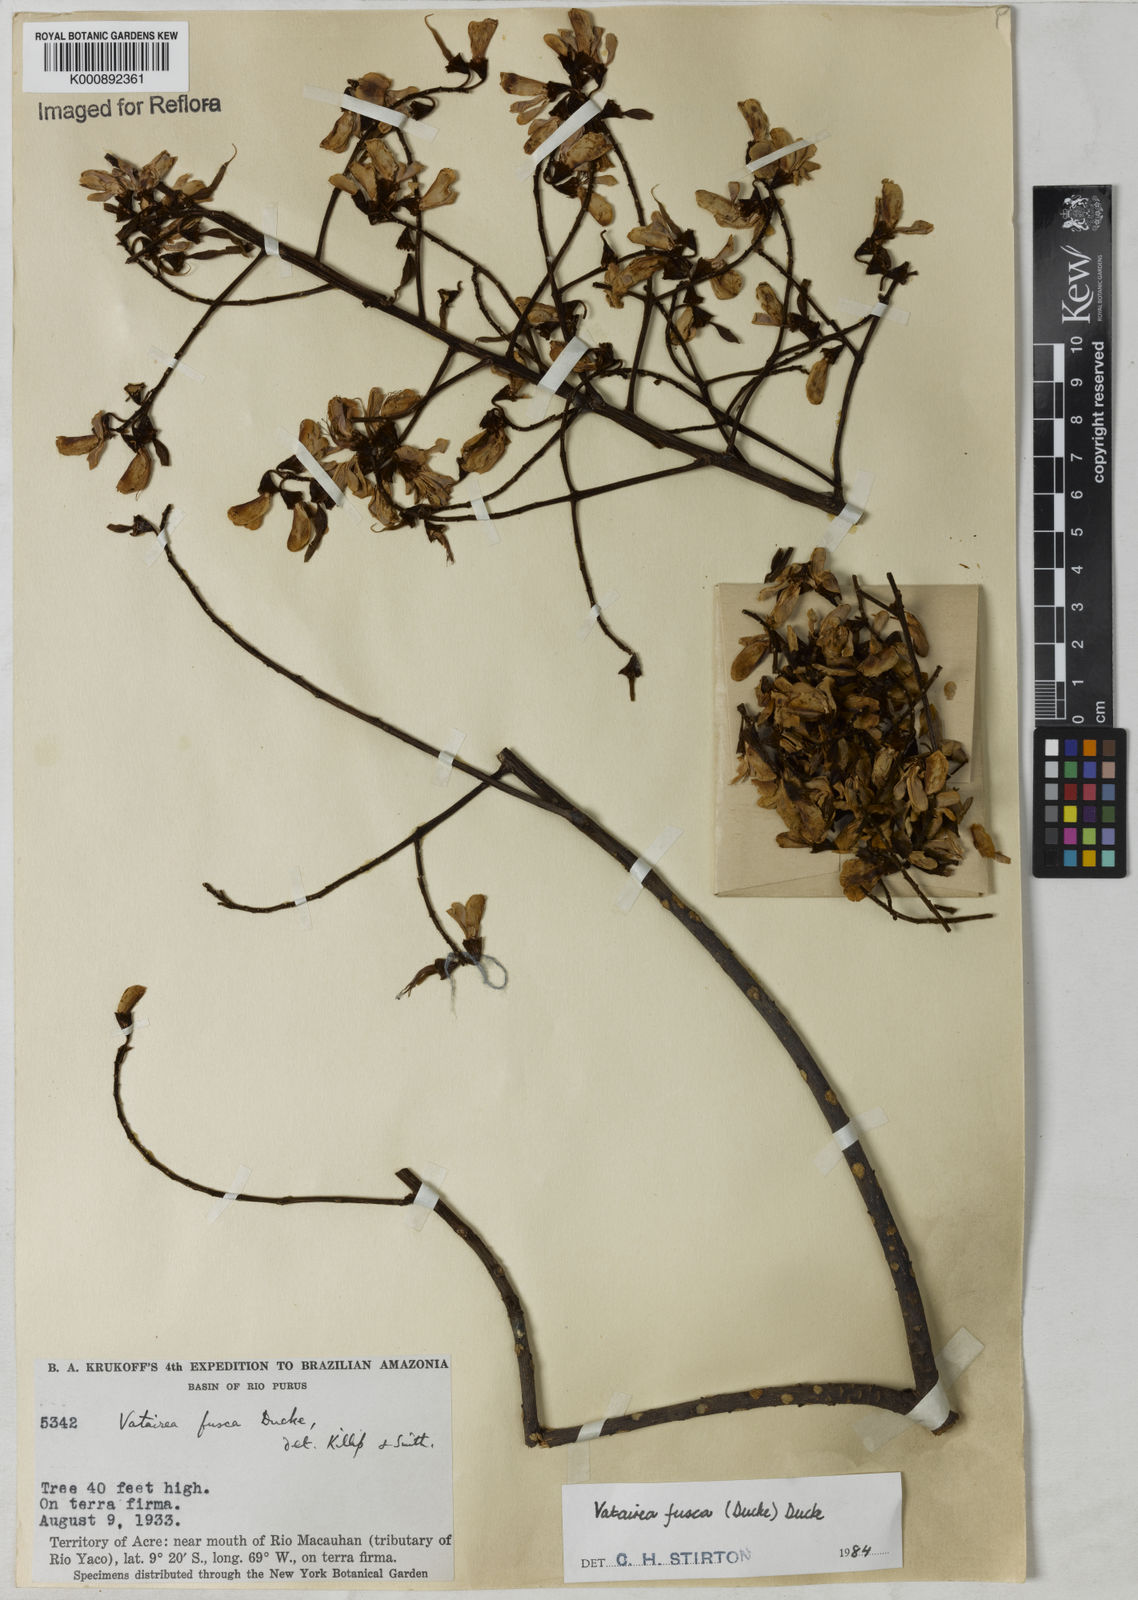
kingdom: Plantae
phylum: Tracheophyta
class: Magnoliopsida
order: Fabales
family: Fabaceae
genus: Vatairea
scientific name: Vatairea fusca
